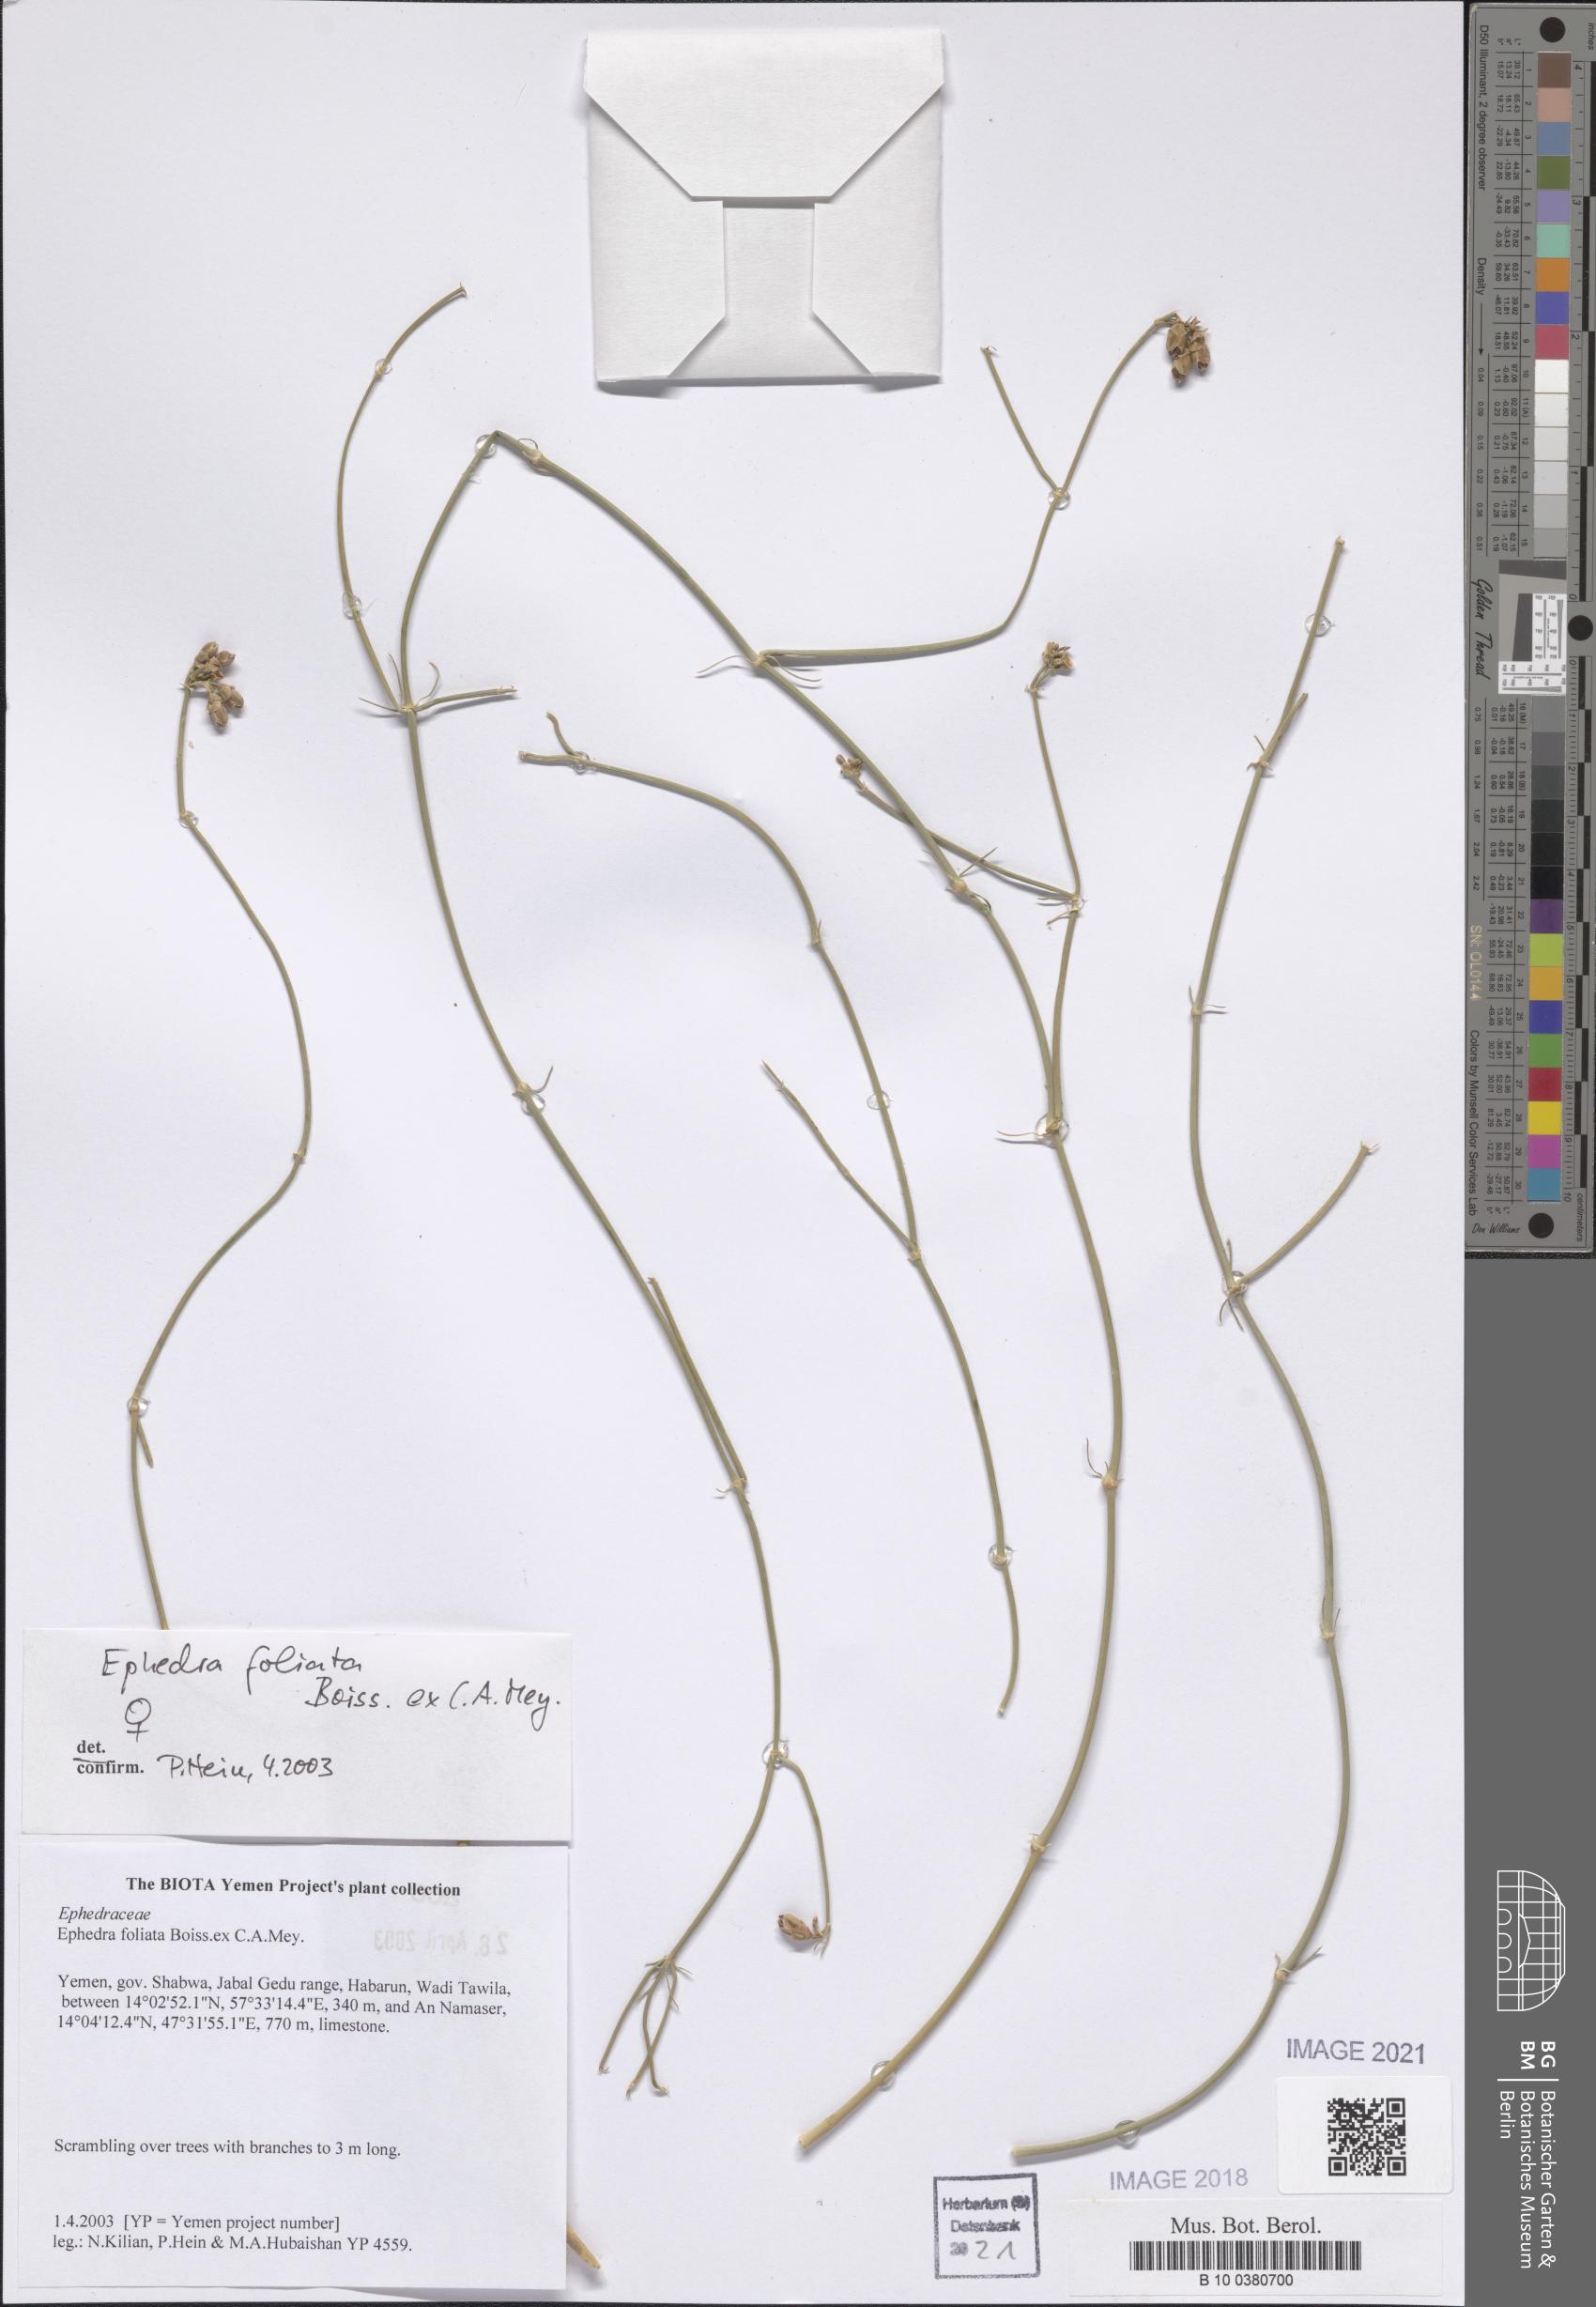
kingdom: Plantae
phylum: Tracheophyta
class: Gnetopsida
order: Ephedrales
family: Ephedraceae
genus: Ephedra
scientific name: Ephedra ciliata
